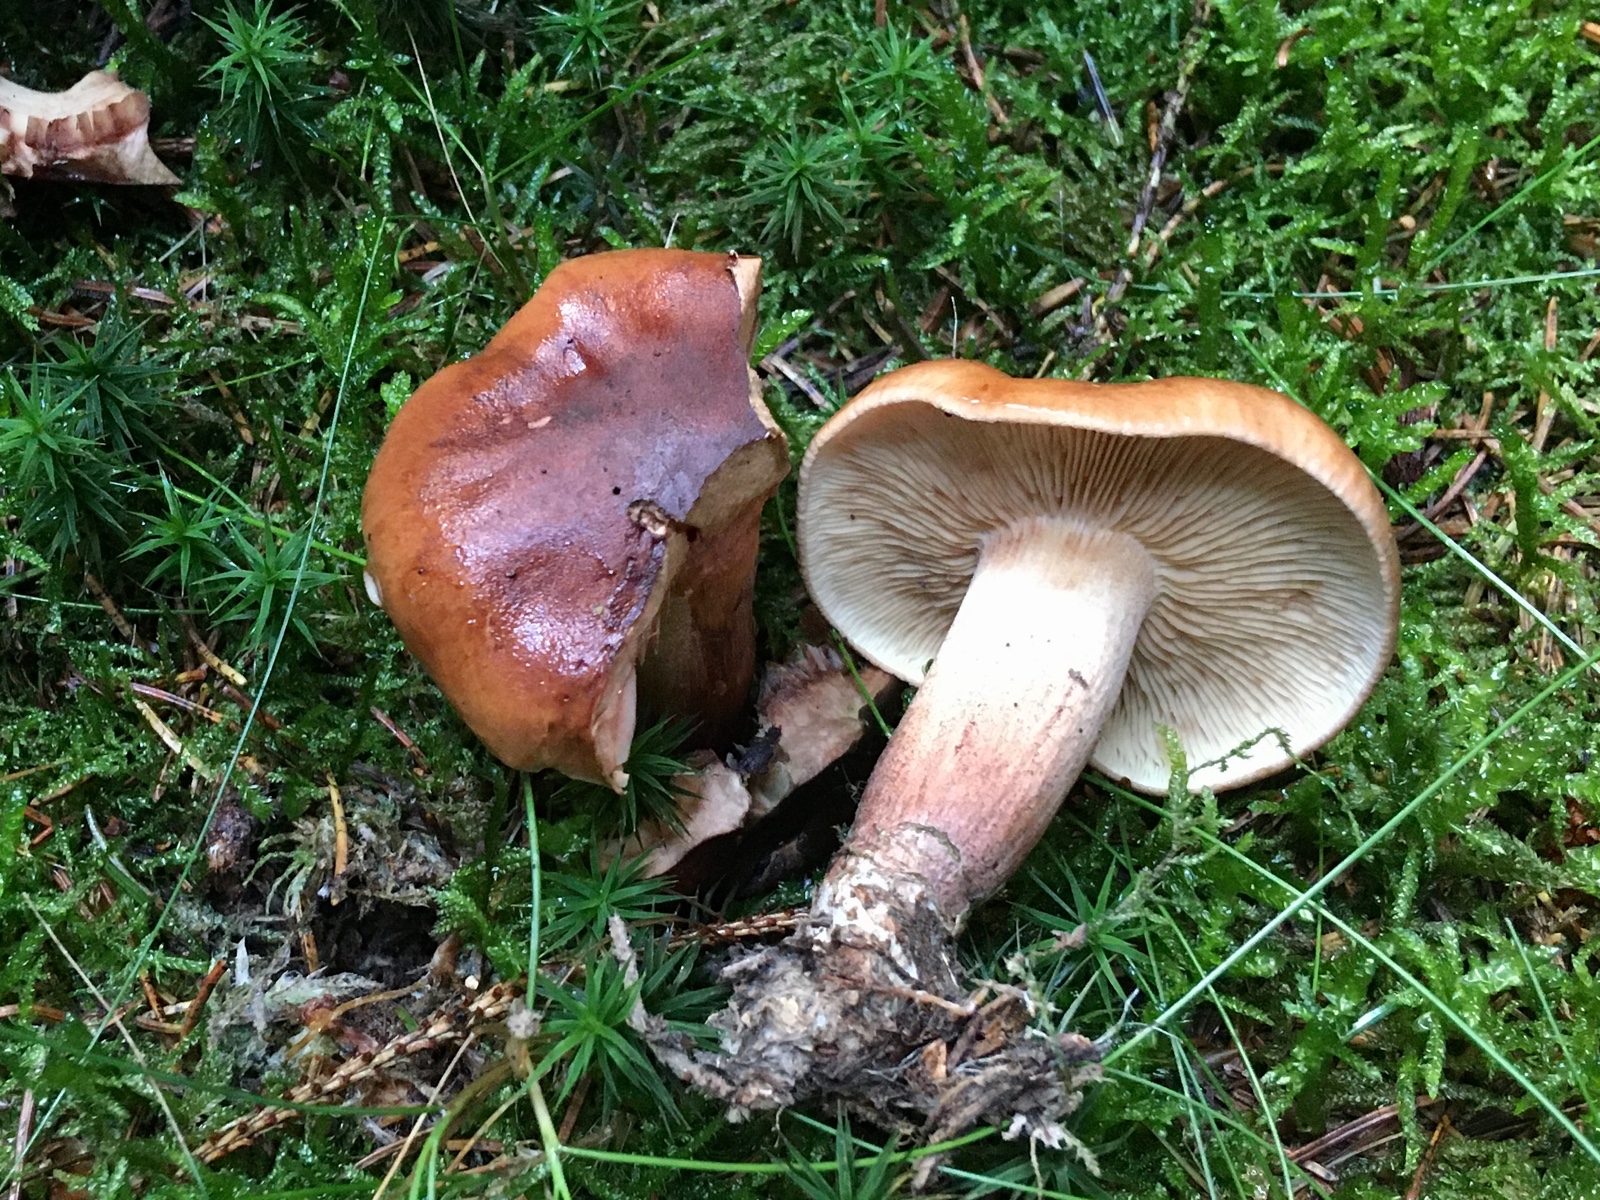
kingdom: Fungi
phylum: Basidiomycota
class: Agaricomycetes
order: Agaricales
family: Tricholomataceae
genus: Tricholoma
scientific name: Tricholoma fulvum
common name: birke-ridderhat
